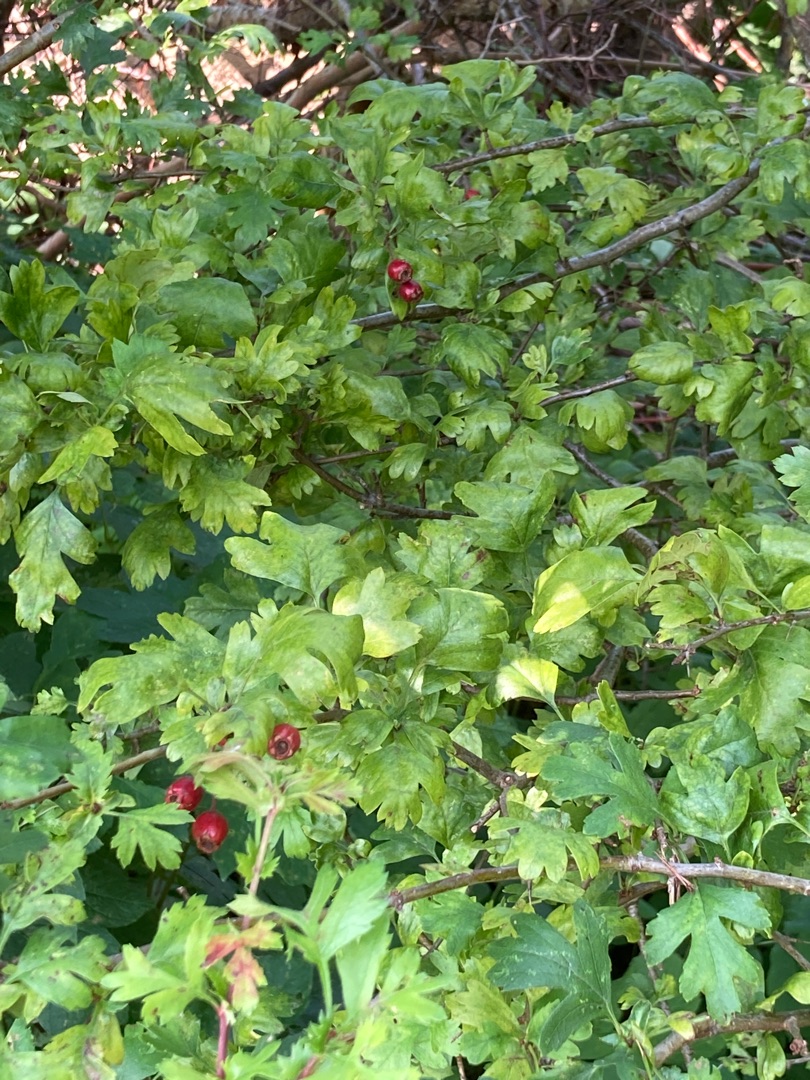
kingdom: Plantae
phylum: Tracheophyta
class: Magnoliopsida
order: Rosales
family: Rosaceae
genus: Crataegus
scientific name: Crataegus subsphaerica
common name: Engriflet hvidtjørn × koral-hvidtjørn
